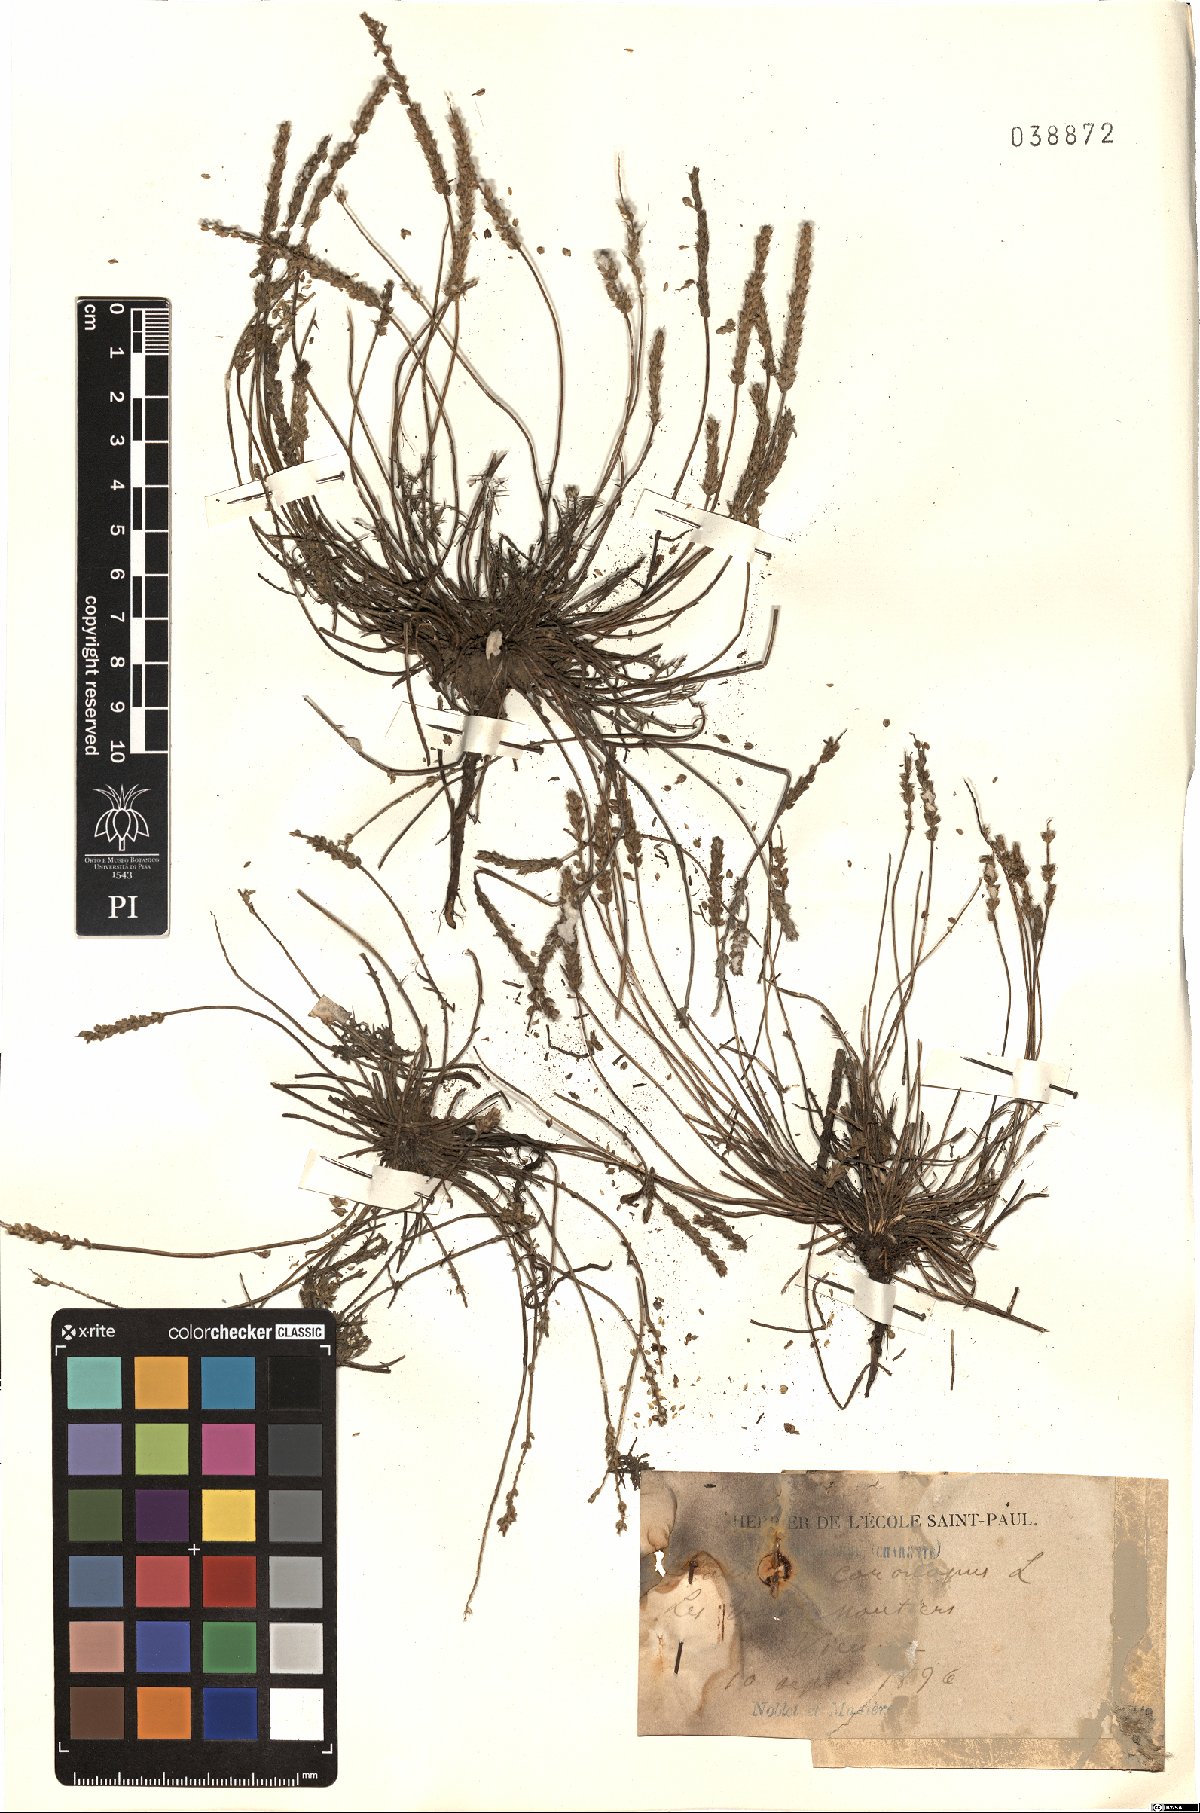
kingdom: Plantae
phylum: Tracheophyta
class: Magnoliopsida
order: Lamiales
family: Plantaginaceae
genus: Plantago
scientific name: Plantago coronopus
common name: Buck's-horn plantain
